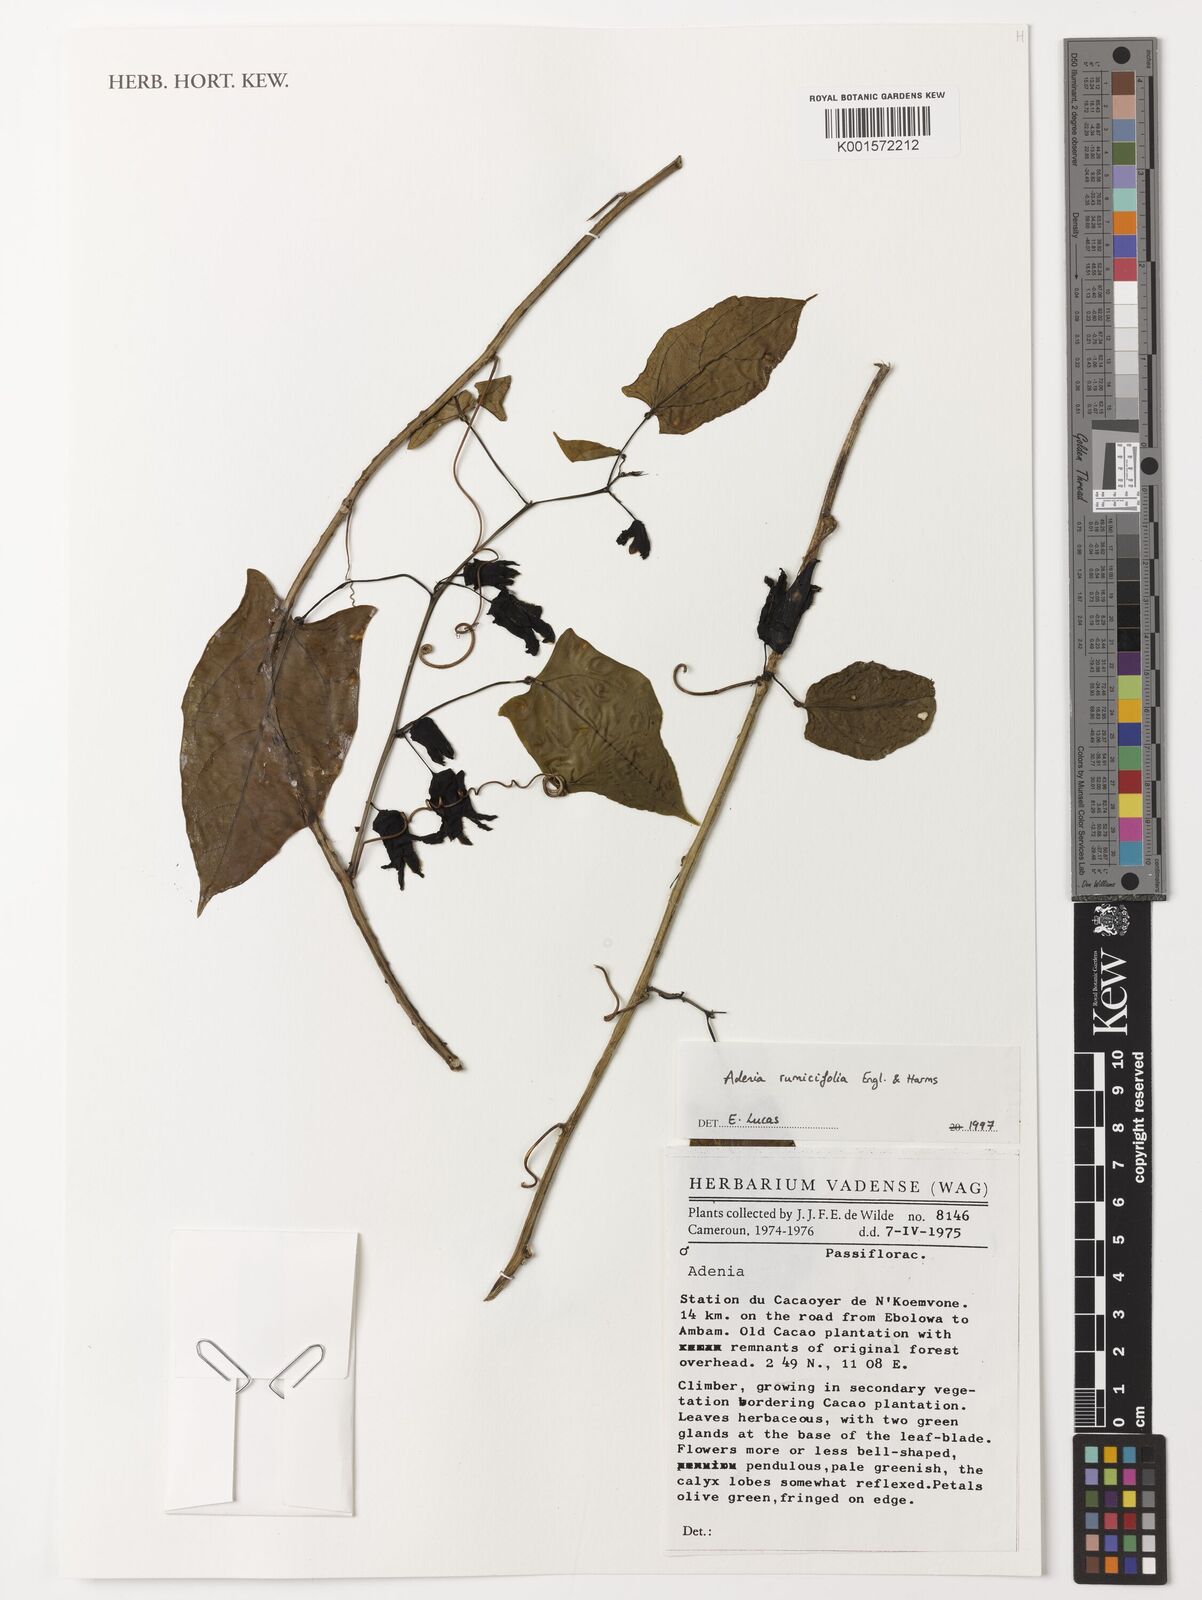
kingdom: Plantae
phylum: Tracheophyta
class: Magnoliopsida
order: Malpighiales
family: Passifloraceae
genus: Adenia
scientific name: Adenia lobata
